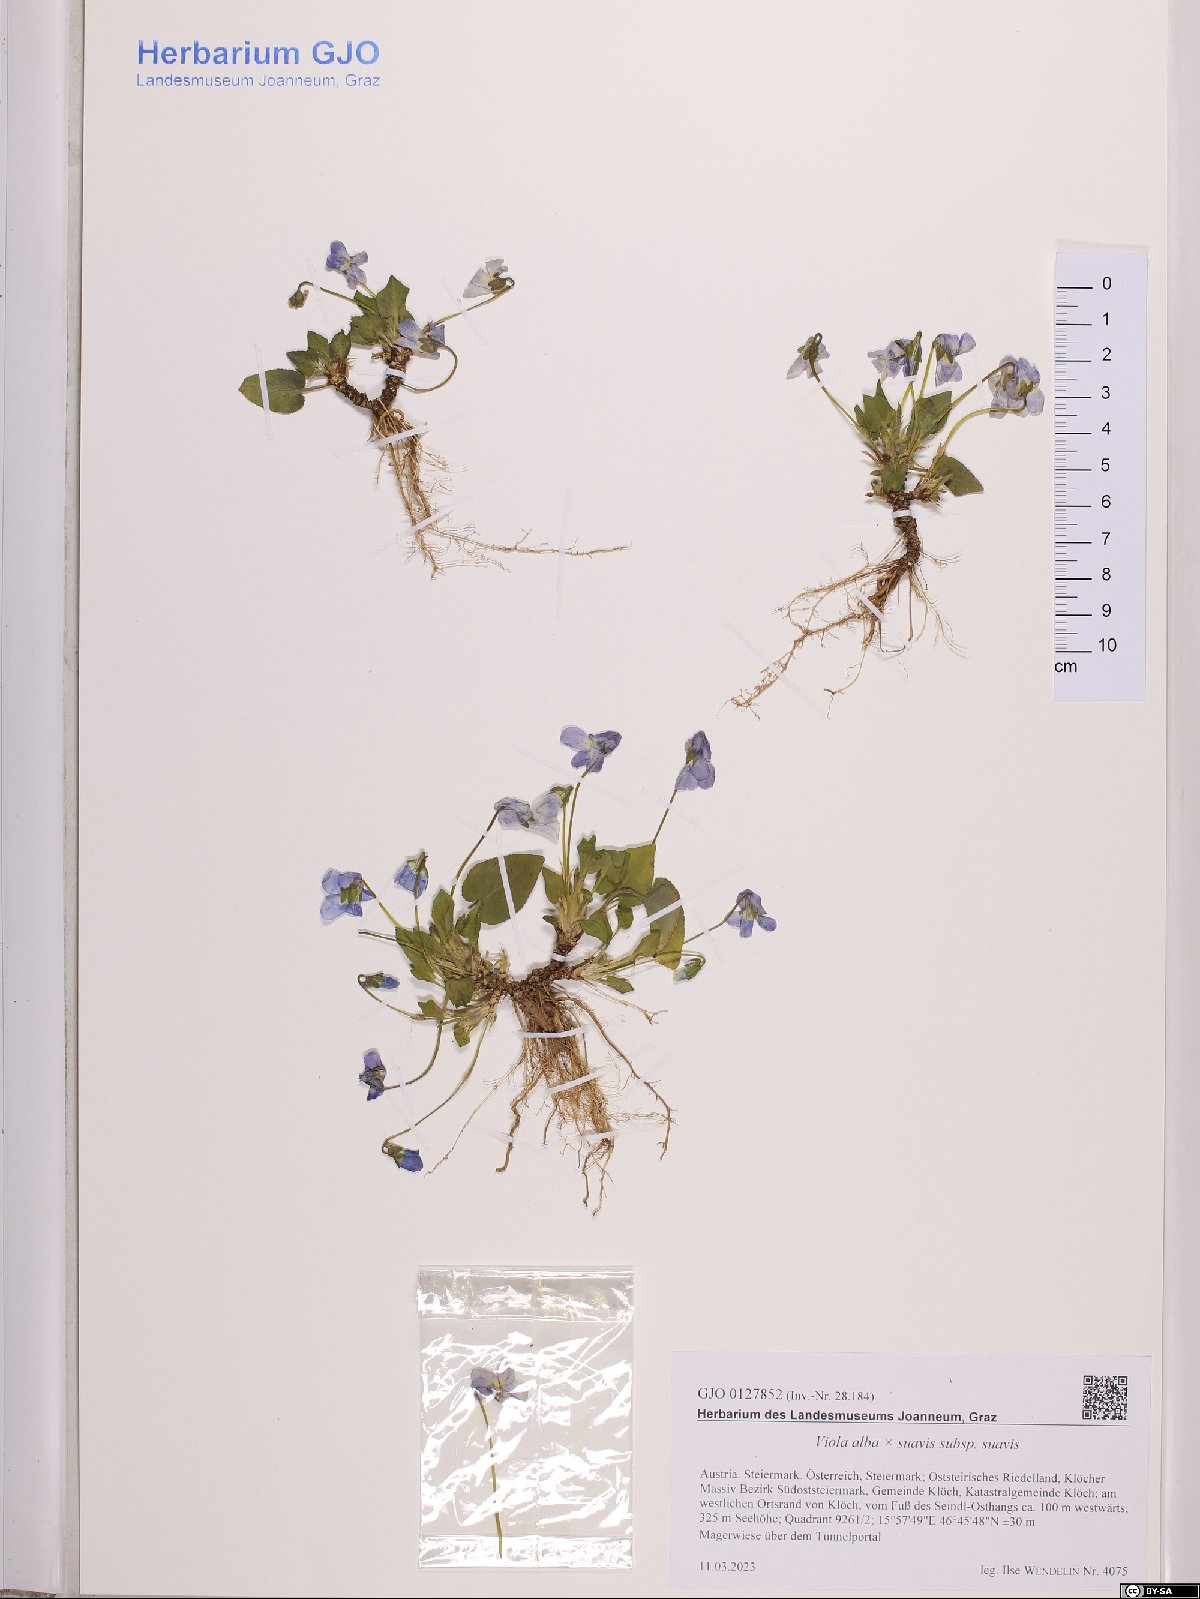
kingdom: Plantae
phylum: Tracheophyta
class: Magnoliopsida
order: Malpighiales
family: Violaceae
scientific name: Violaceae
